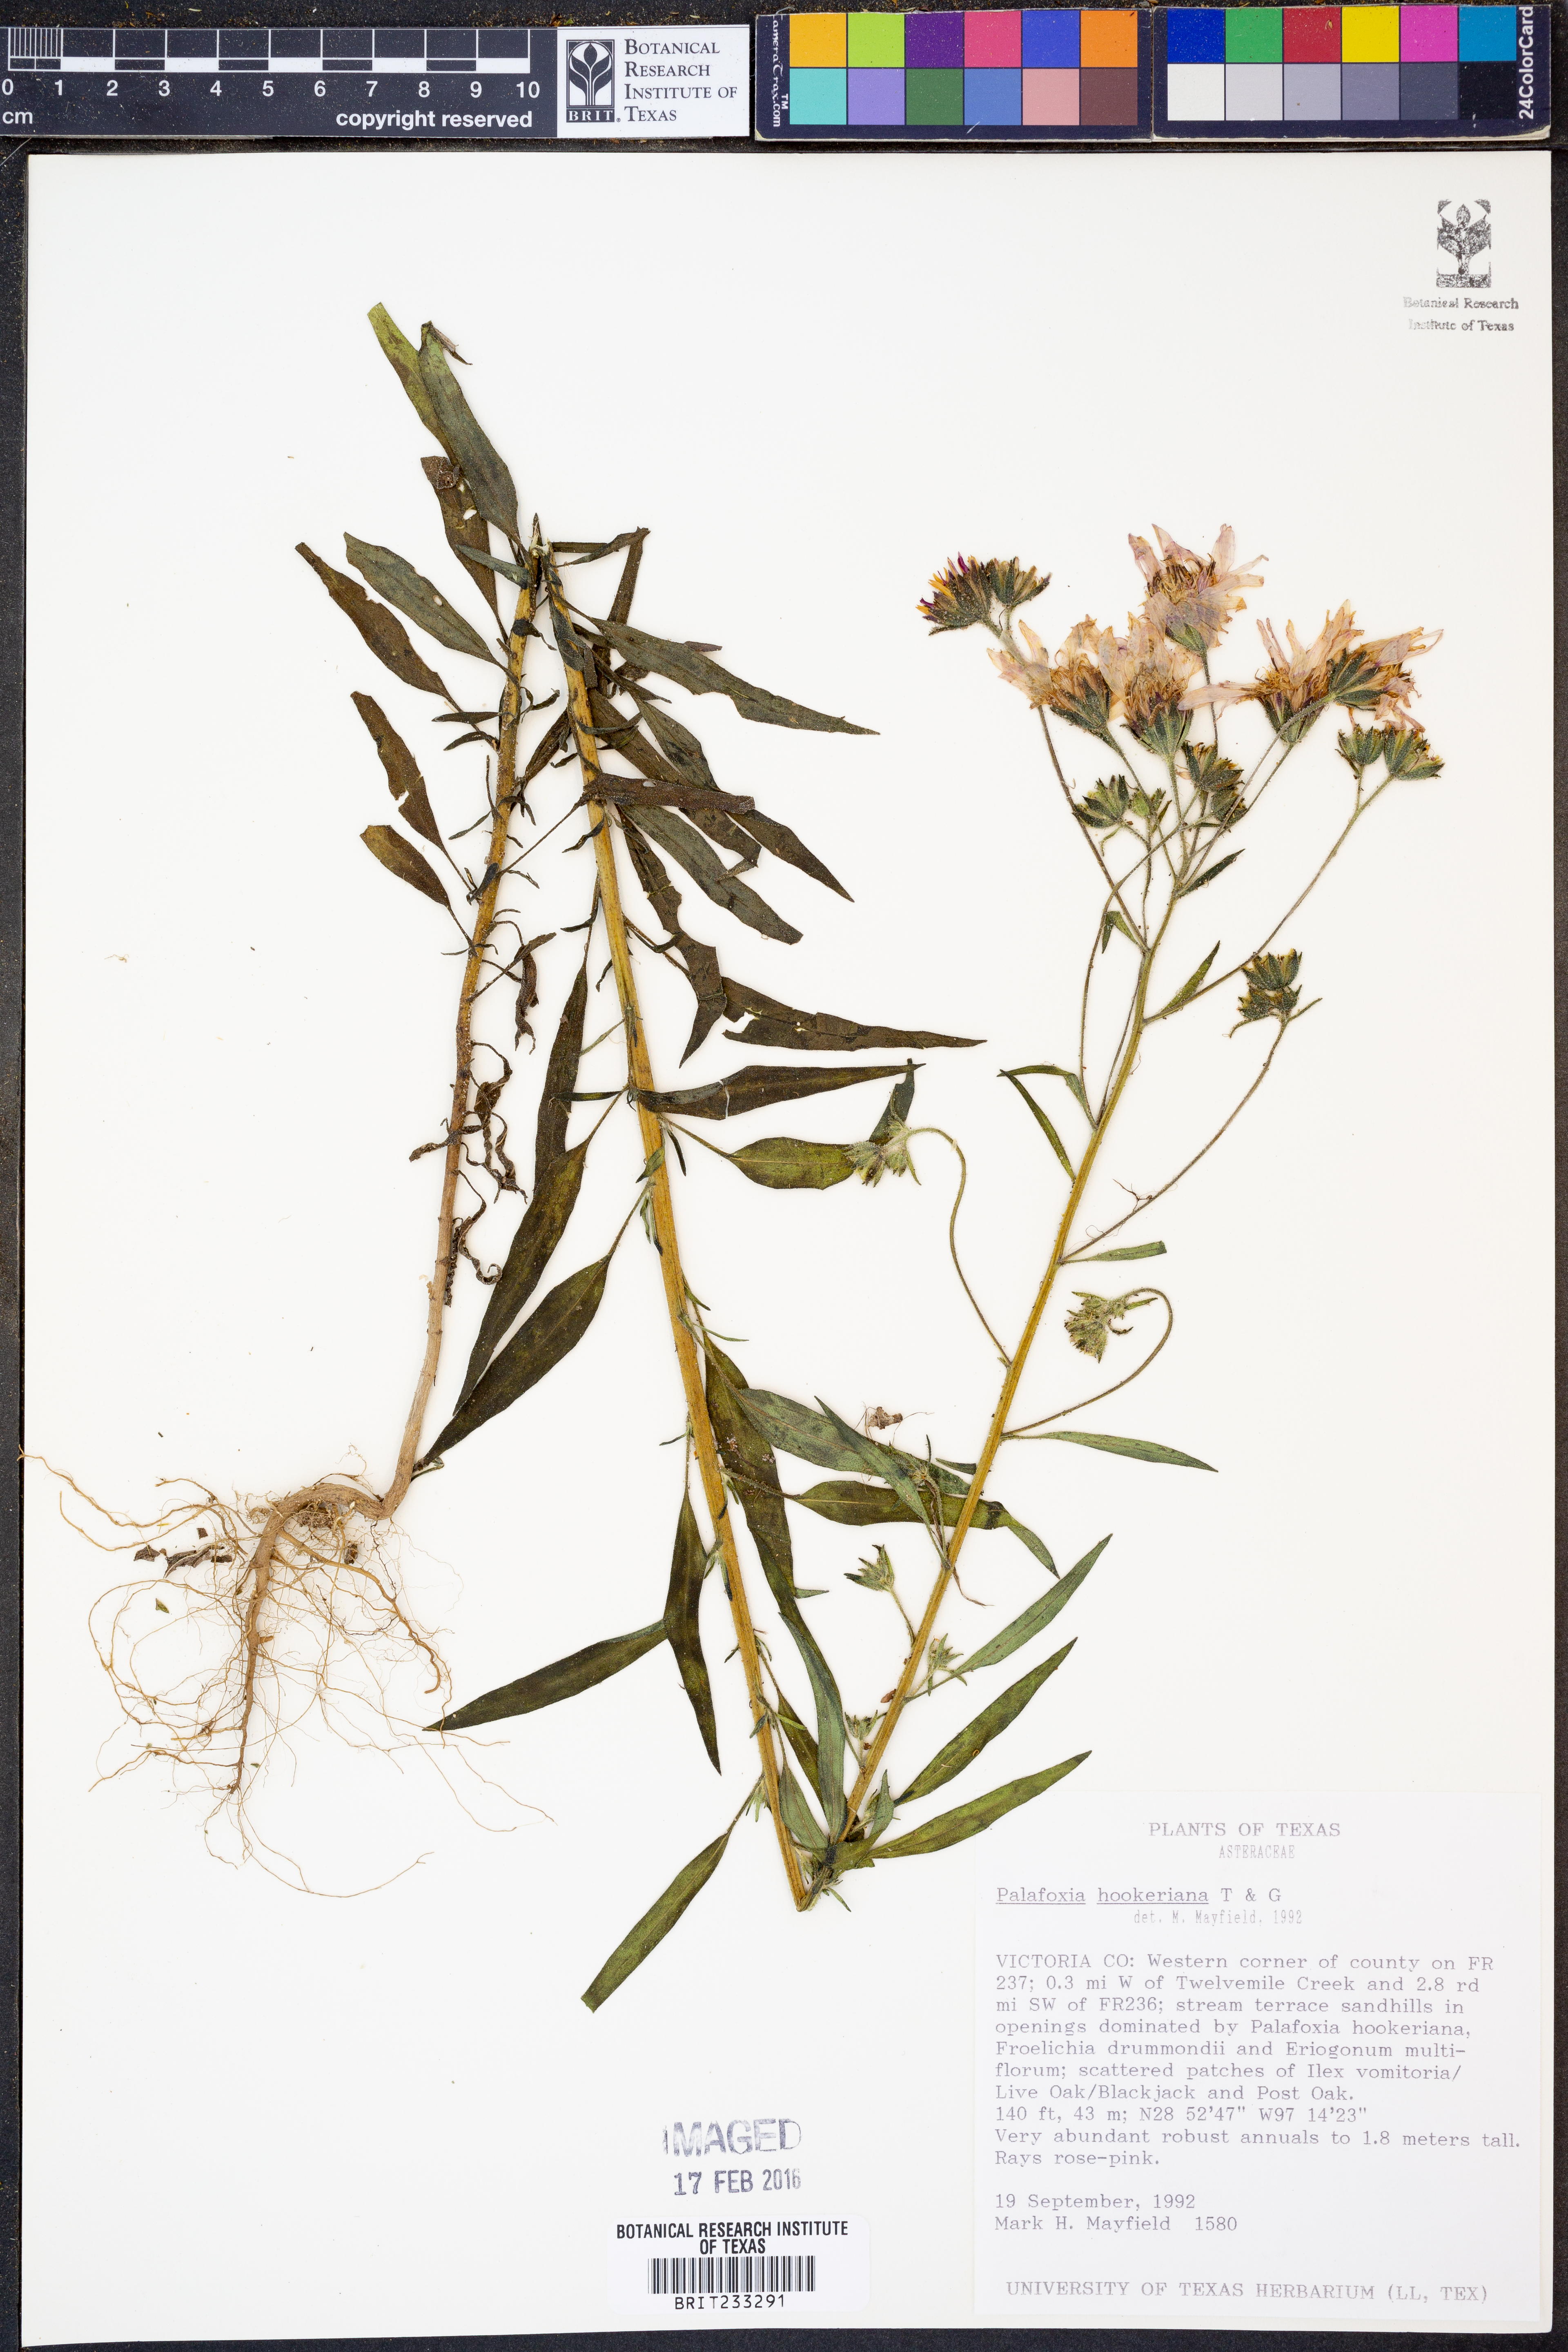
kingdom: Plantae
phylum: Tracheophyta
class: Magnoliopsida
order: Asterales
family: Asteraceae
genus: Palafoxia
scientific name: Palafoxia hookeriana
